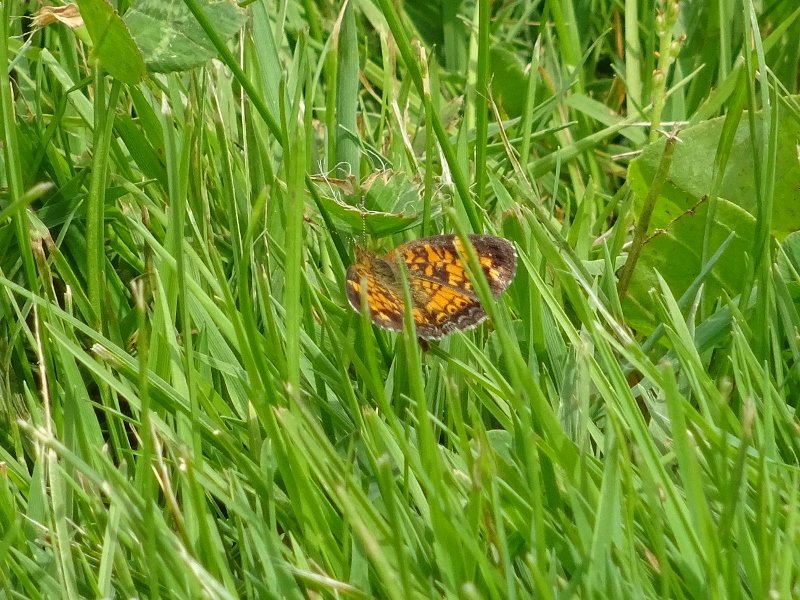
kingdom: Animalia
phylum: Arthropoda
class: Insecta
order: Lepidoptera
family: Nymphalidae
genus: Phyciodes
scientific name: Phyciodes tharos
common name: Northern Crescent
